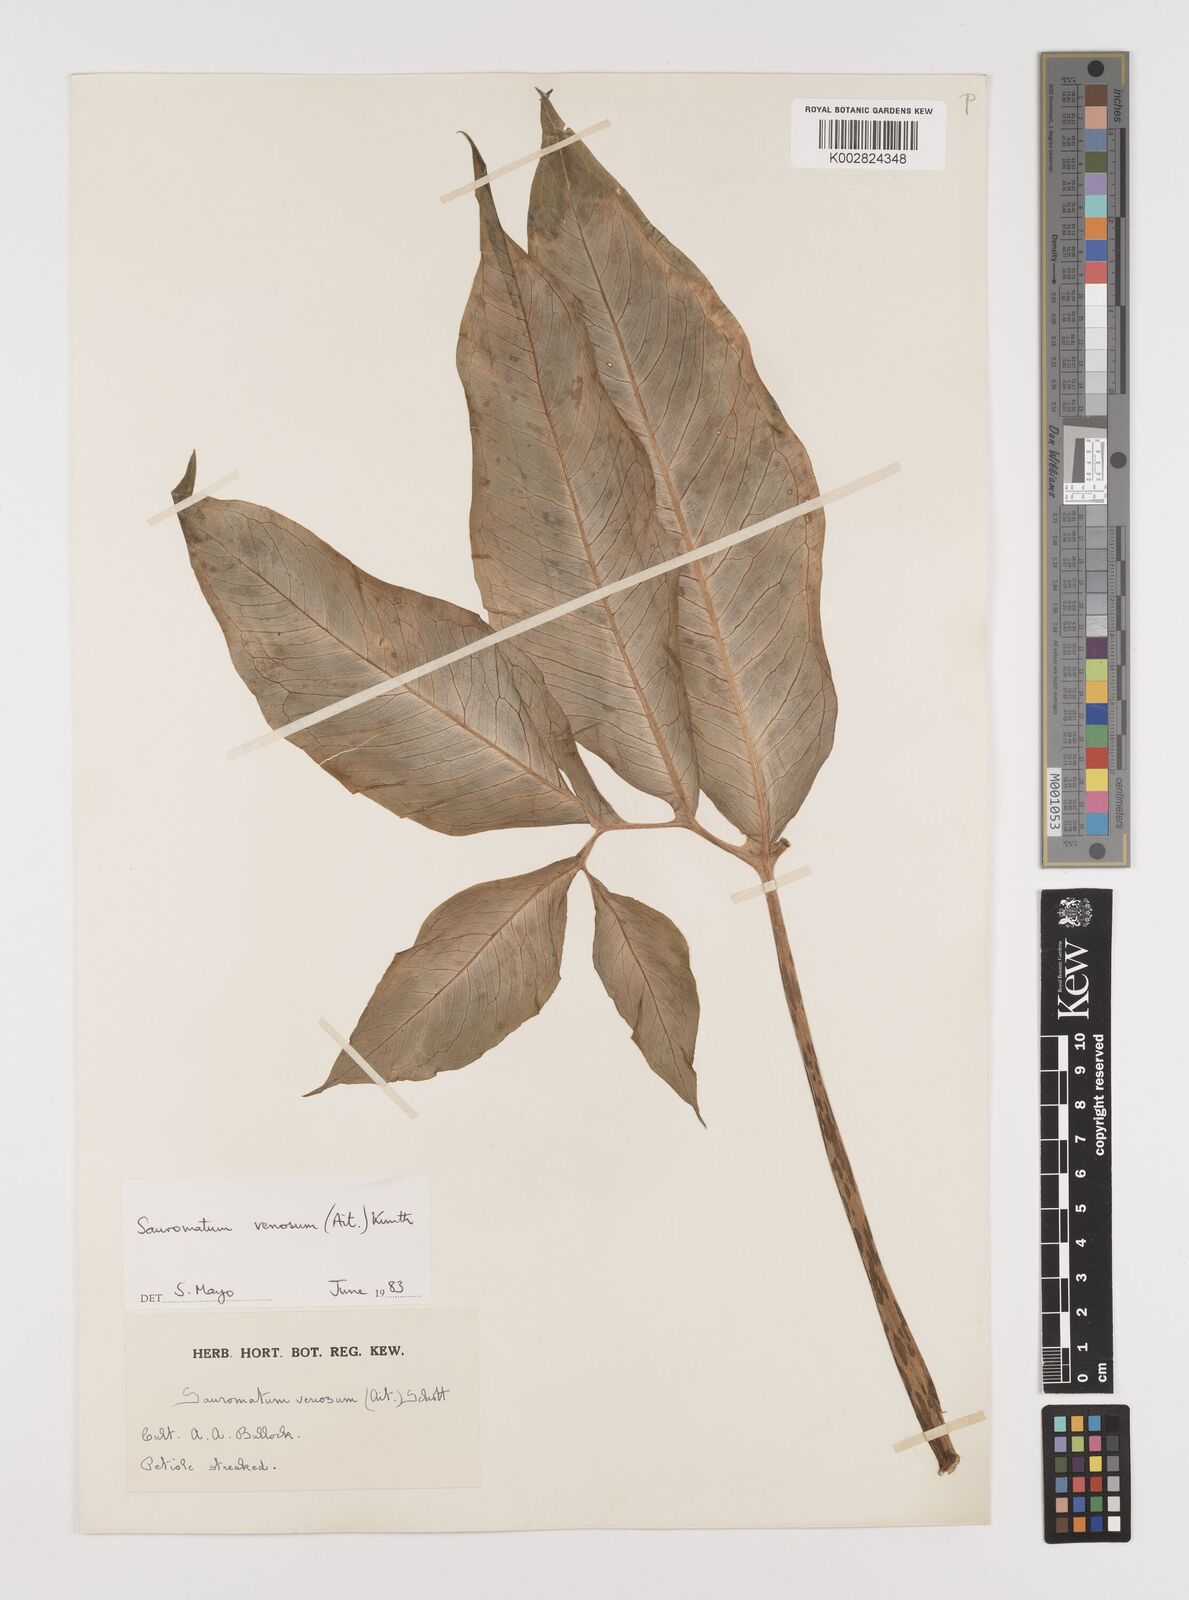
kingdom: Plantae
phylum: Tracheophyta
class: Liliopsida
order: Alismatales
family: Araceae
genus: Sauromatum
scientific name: Sauromatum venosum
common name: Voodoo lily
